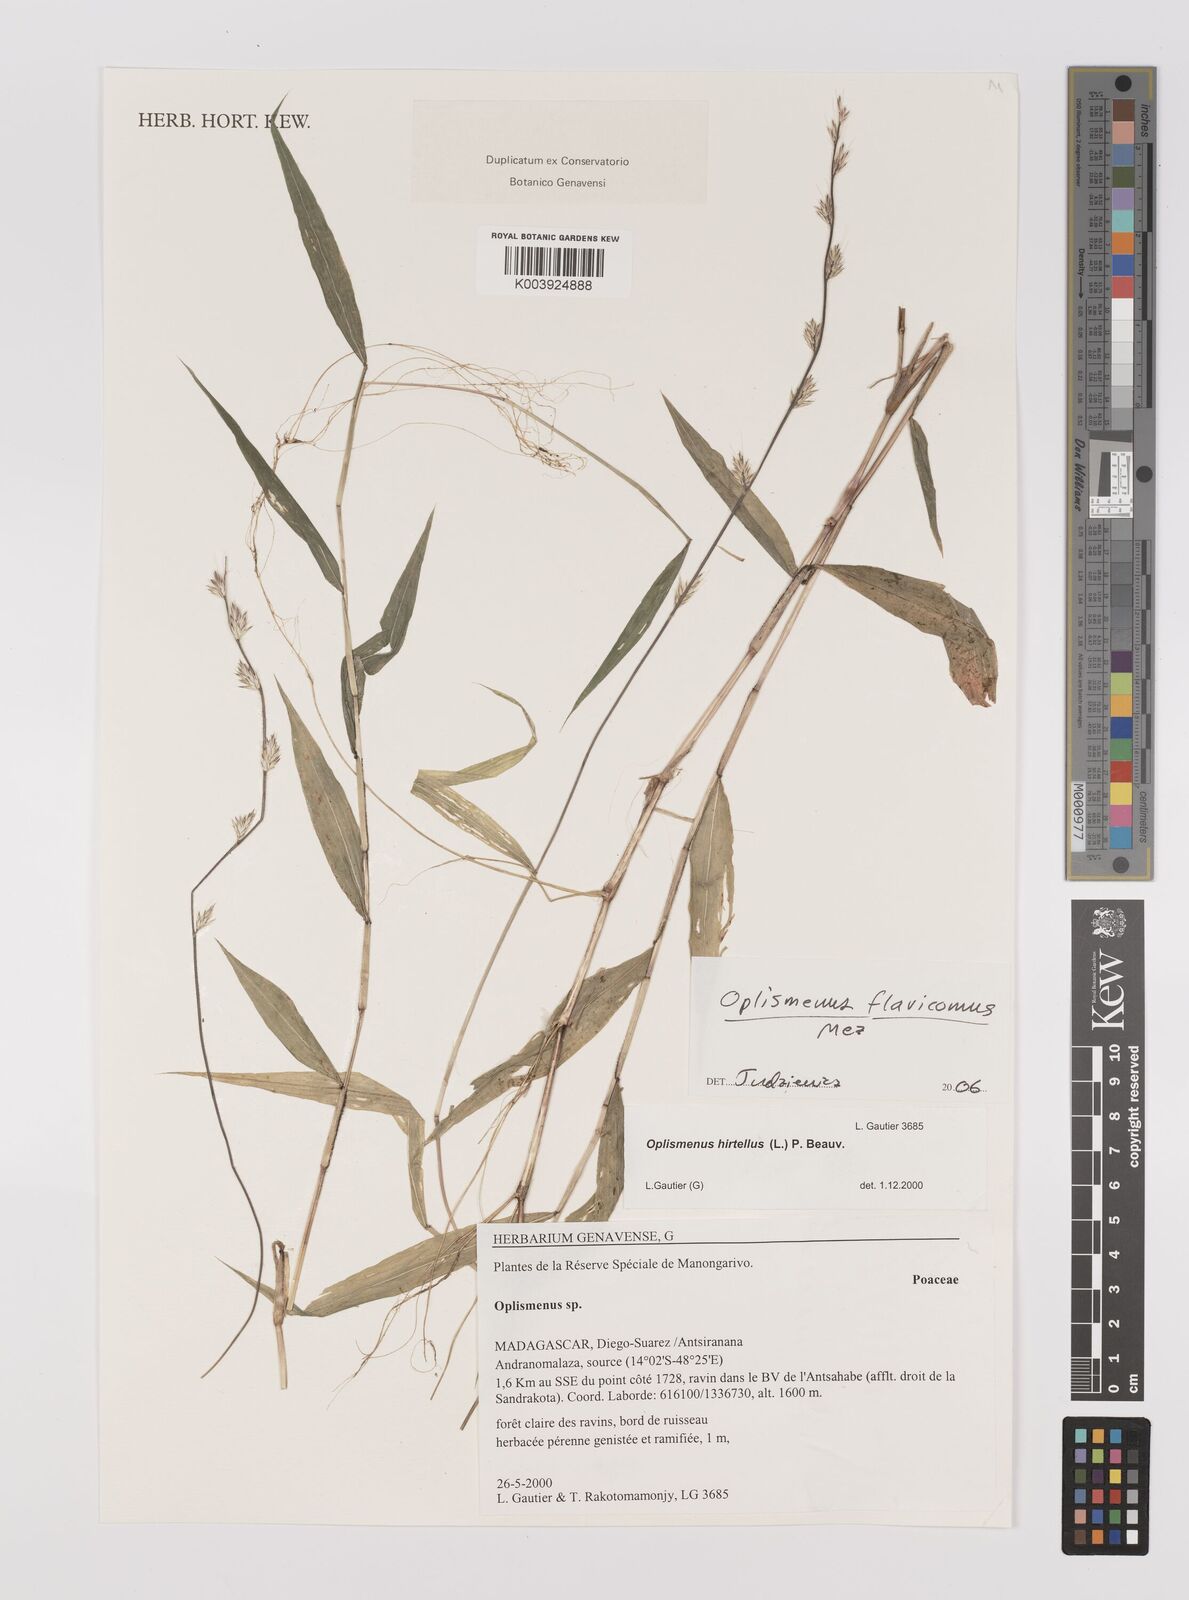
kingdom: Plantae
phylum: Tracheophyta
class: Liliopsida
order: Poales
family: Poaceae
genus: Oplismenus
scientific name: Oplismenus flavicomus
